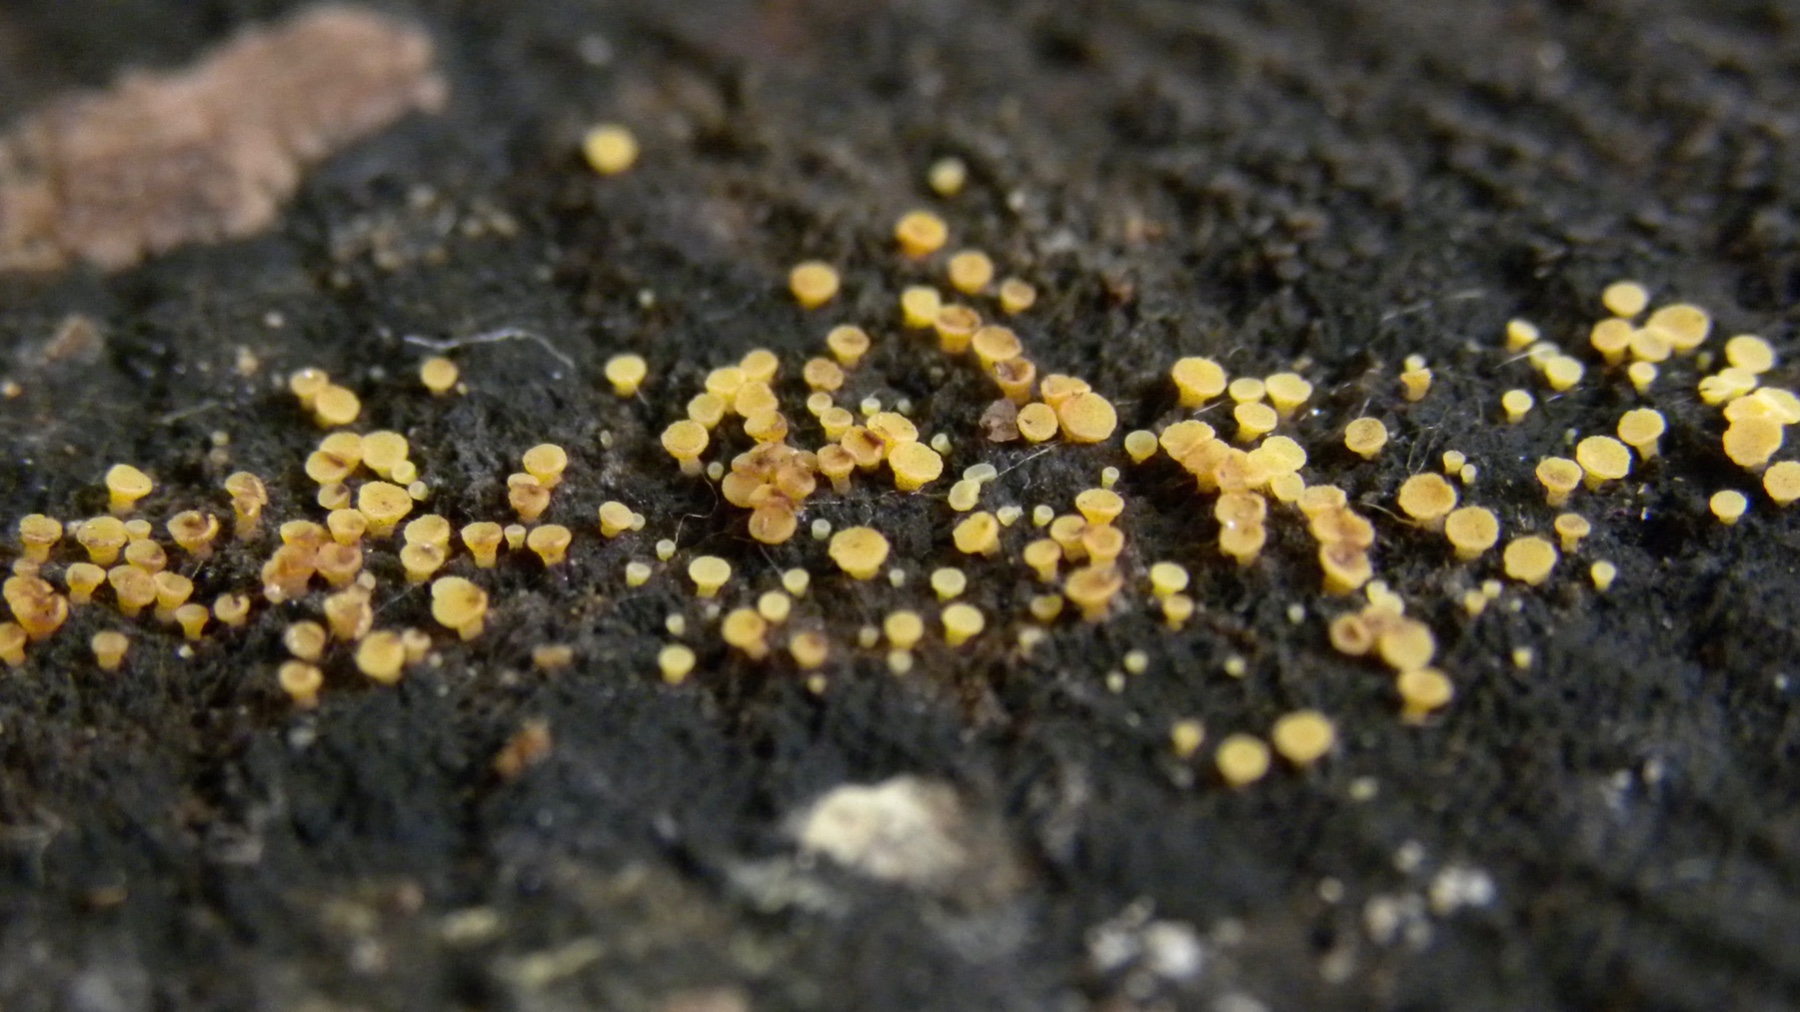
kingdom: Fungi
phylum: Ascomycota
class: Leotiomycetes
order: Helotiales
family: Helotiaceae
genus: Bispora
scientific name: Bispora pallescens
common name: måtte-snitskive
